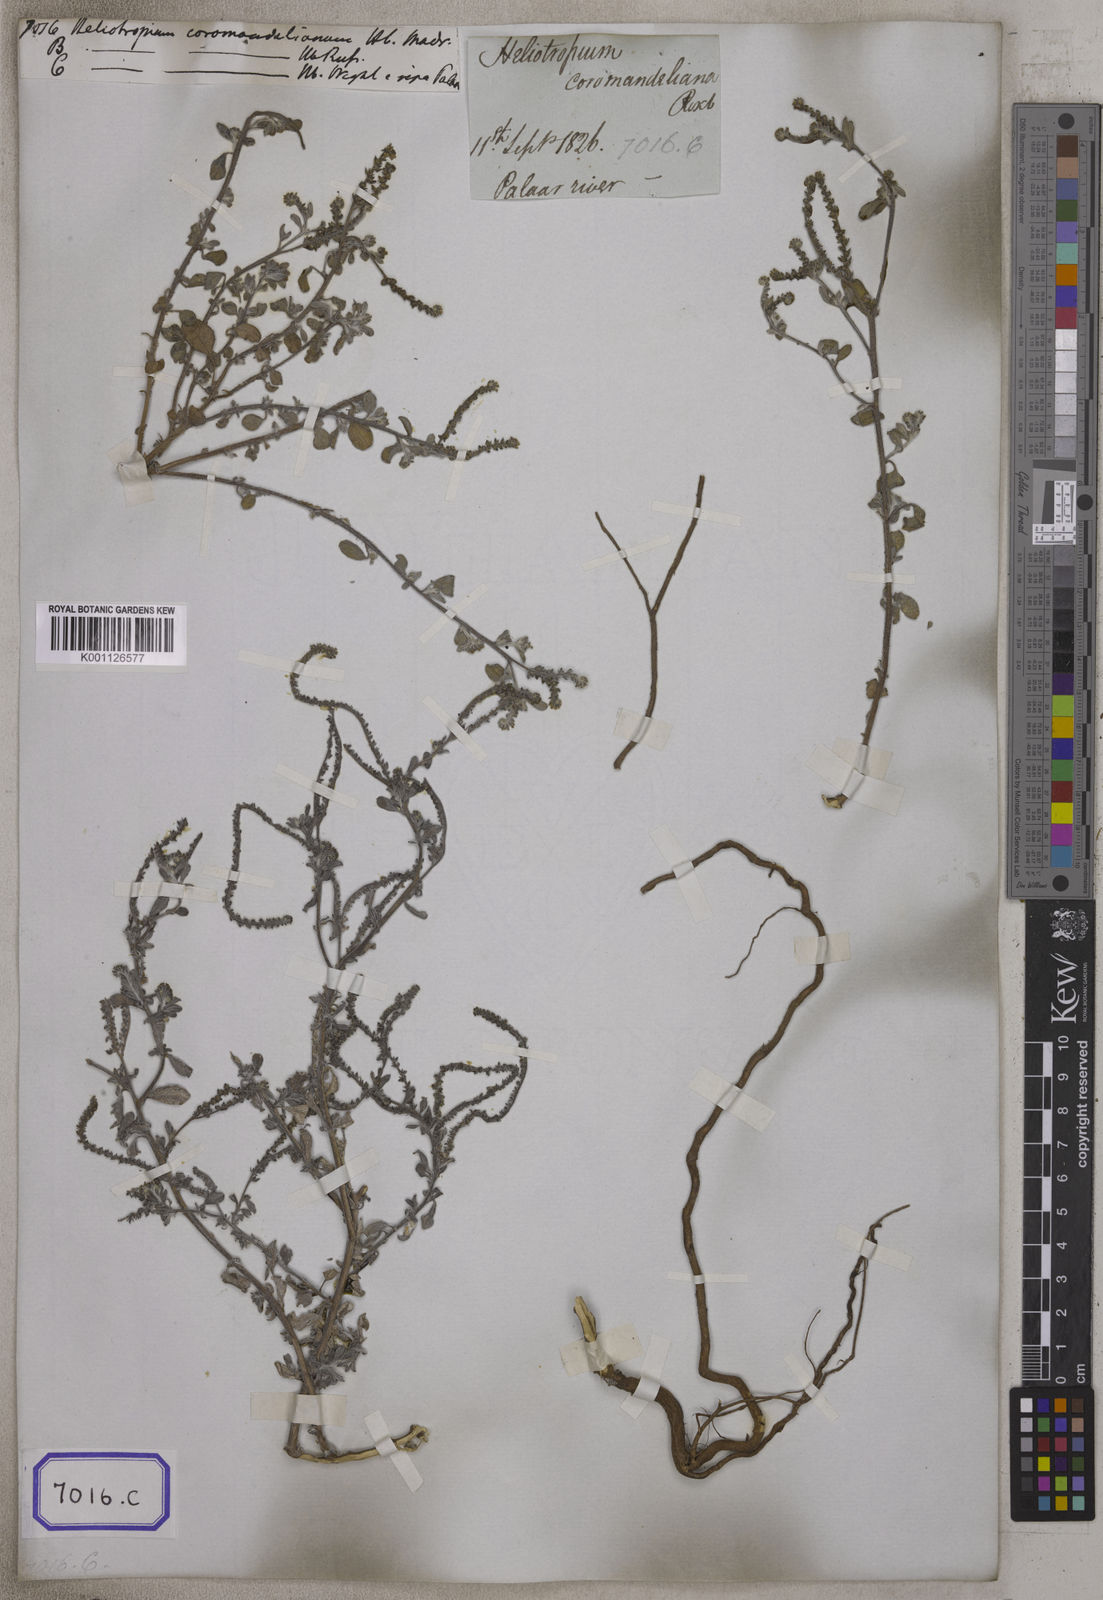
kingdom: Plantae
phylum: Tracheophyta
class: Magnoliopsida
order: Boraginales
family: Heliotropiaceae
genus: Euploca
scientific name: Euploca ovalifolia
